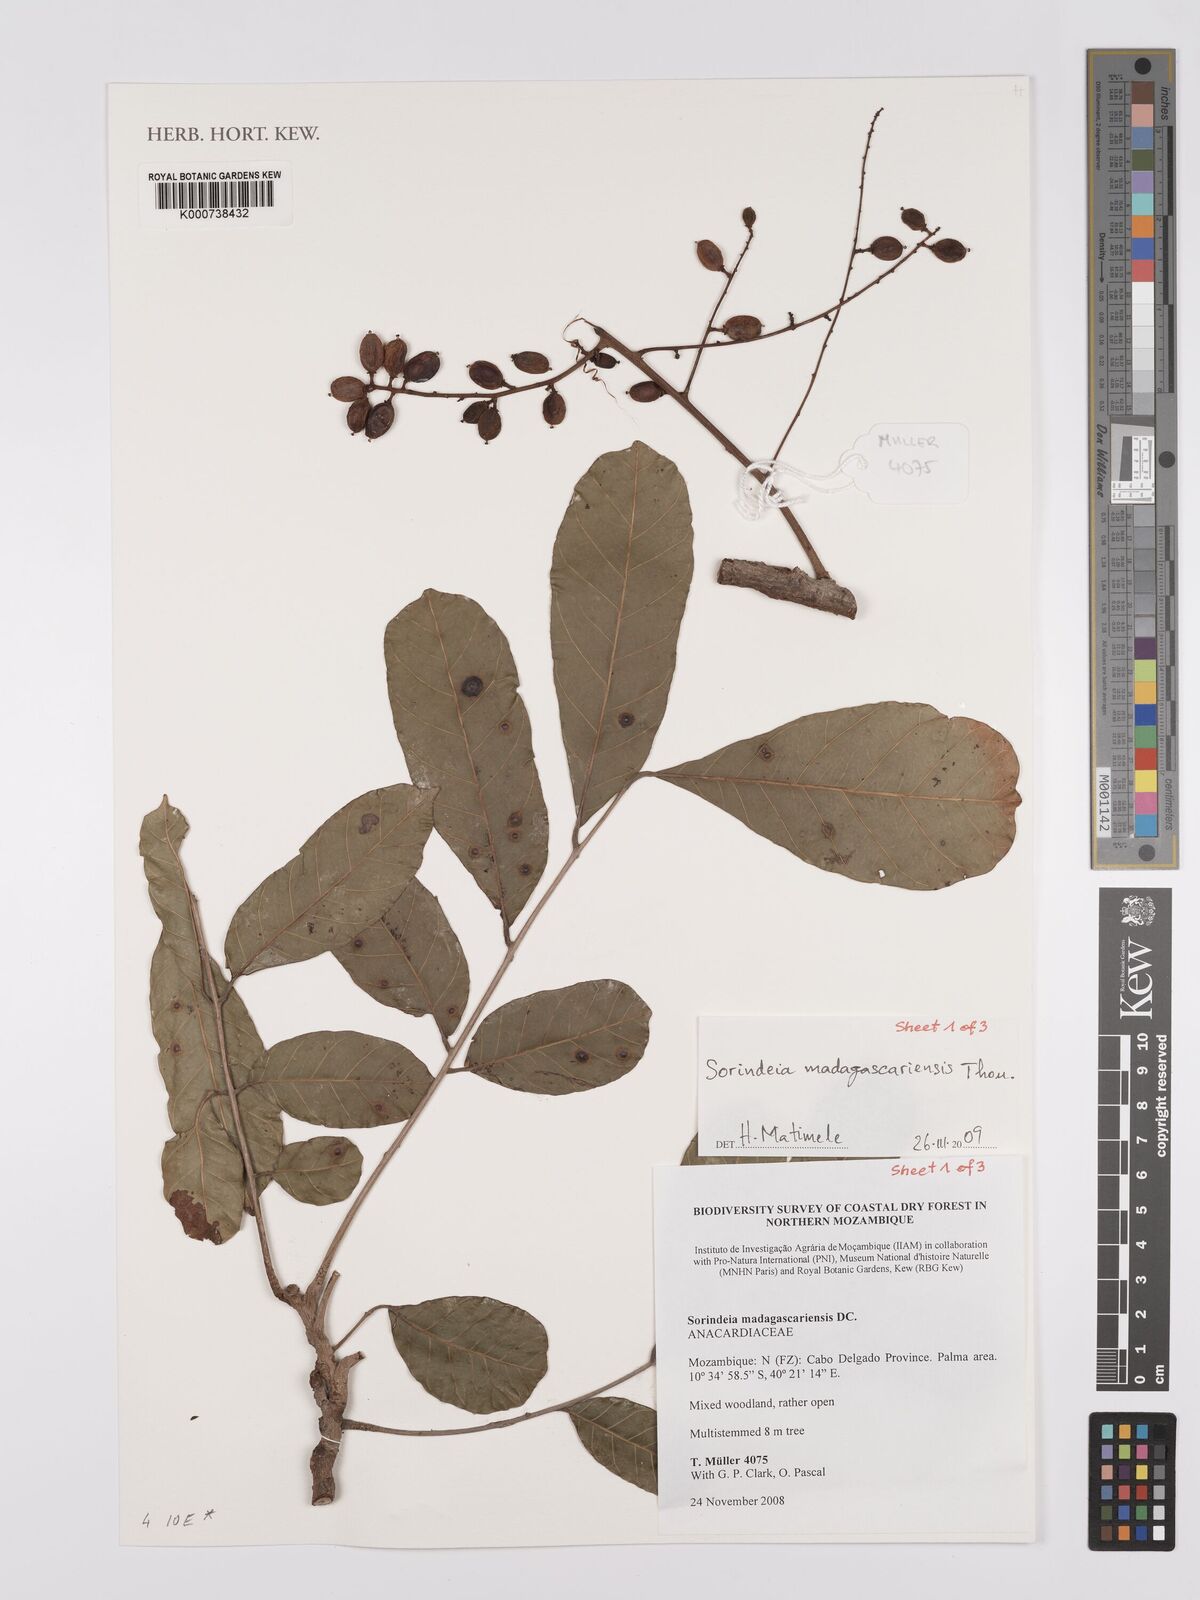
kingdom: Plantae
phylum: Tracheophyta
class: Magnoliopsida
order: Sapindales
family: Anacardiaceae
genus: Sorindeia
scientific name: Sorindeia madagascariensis
